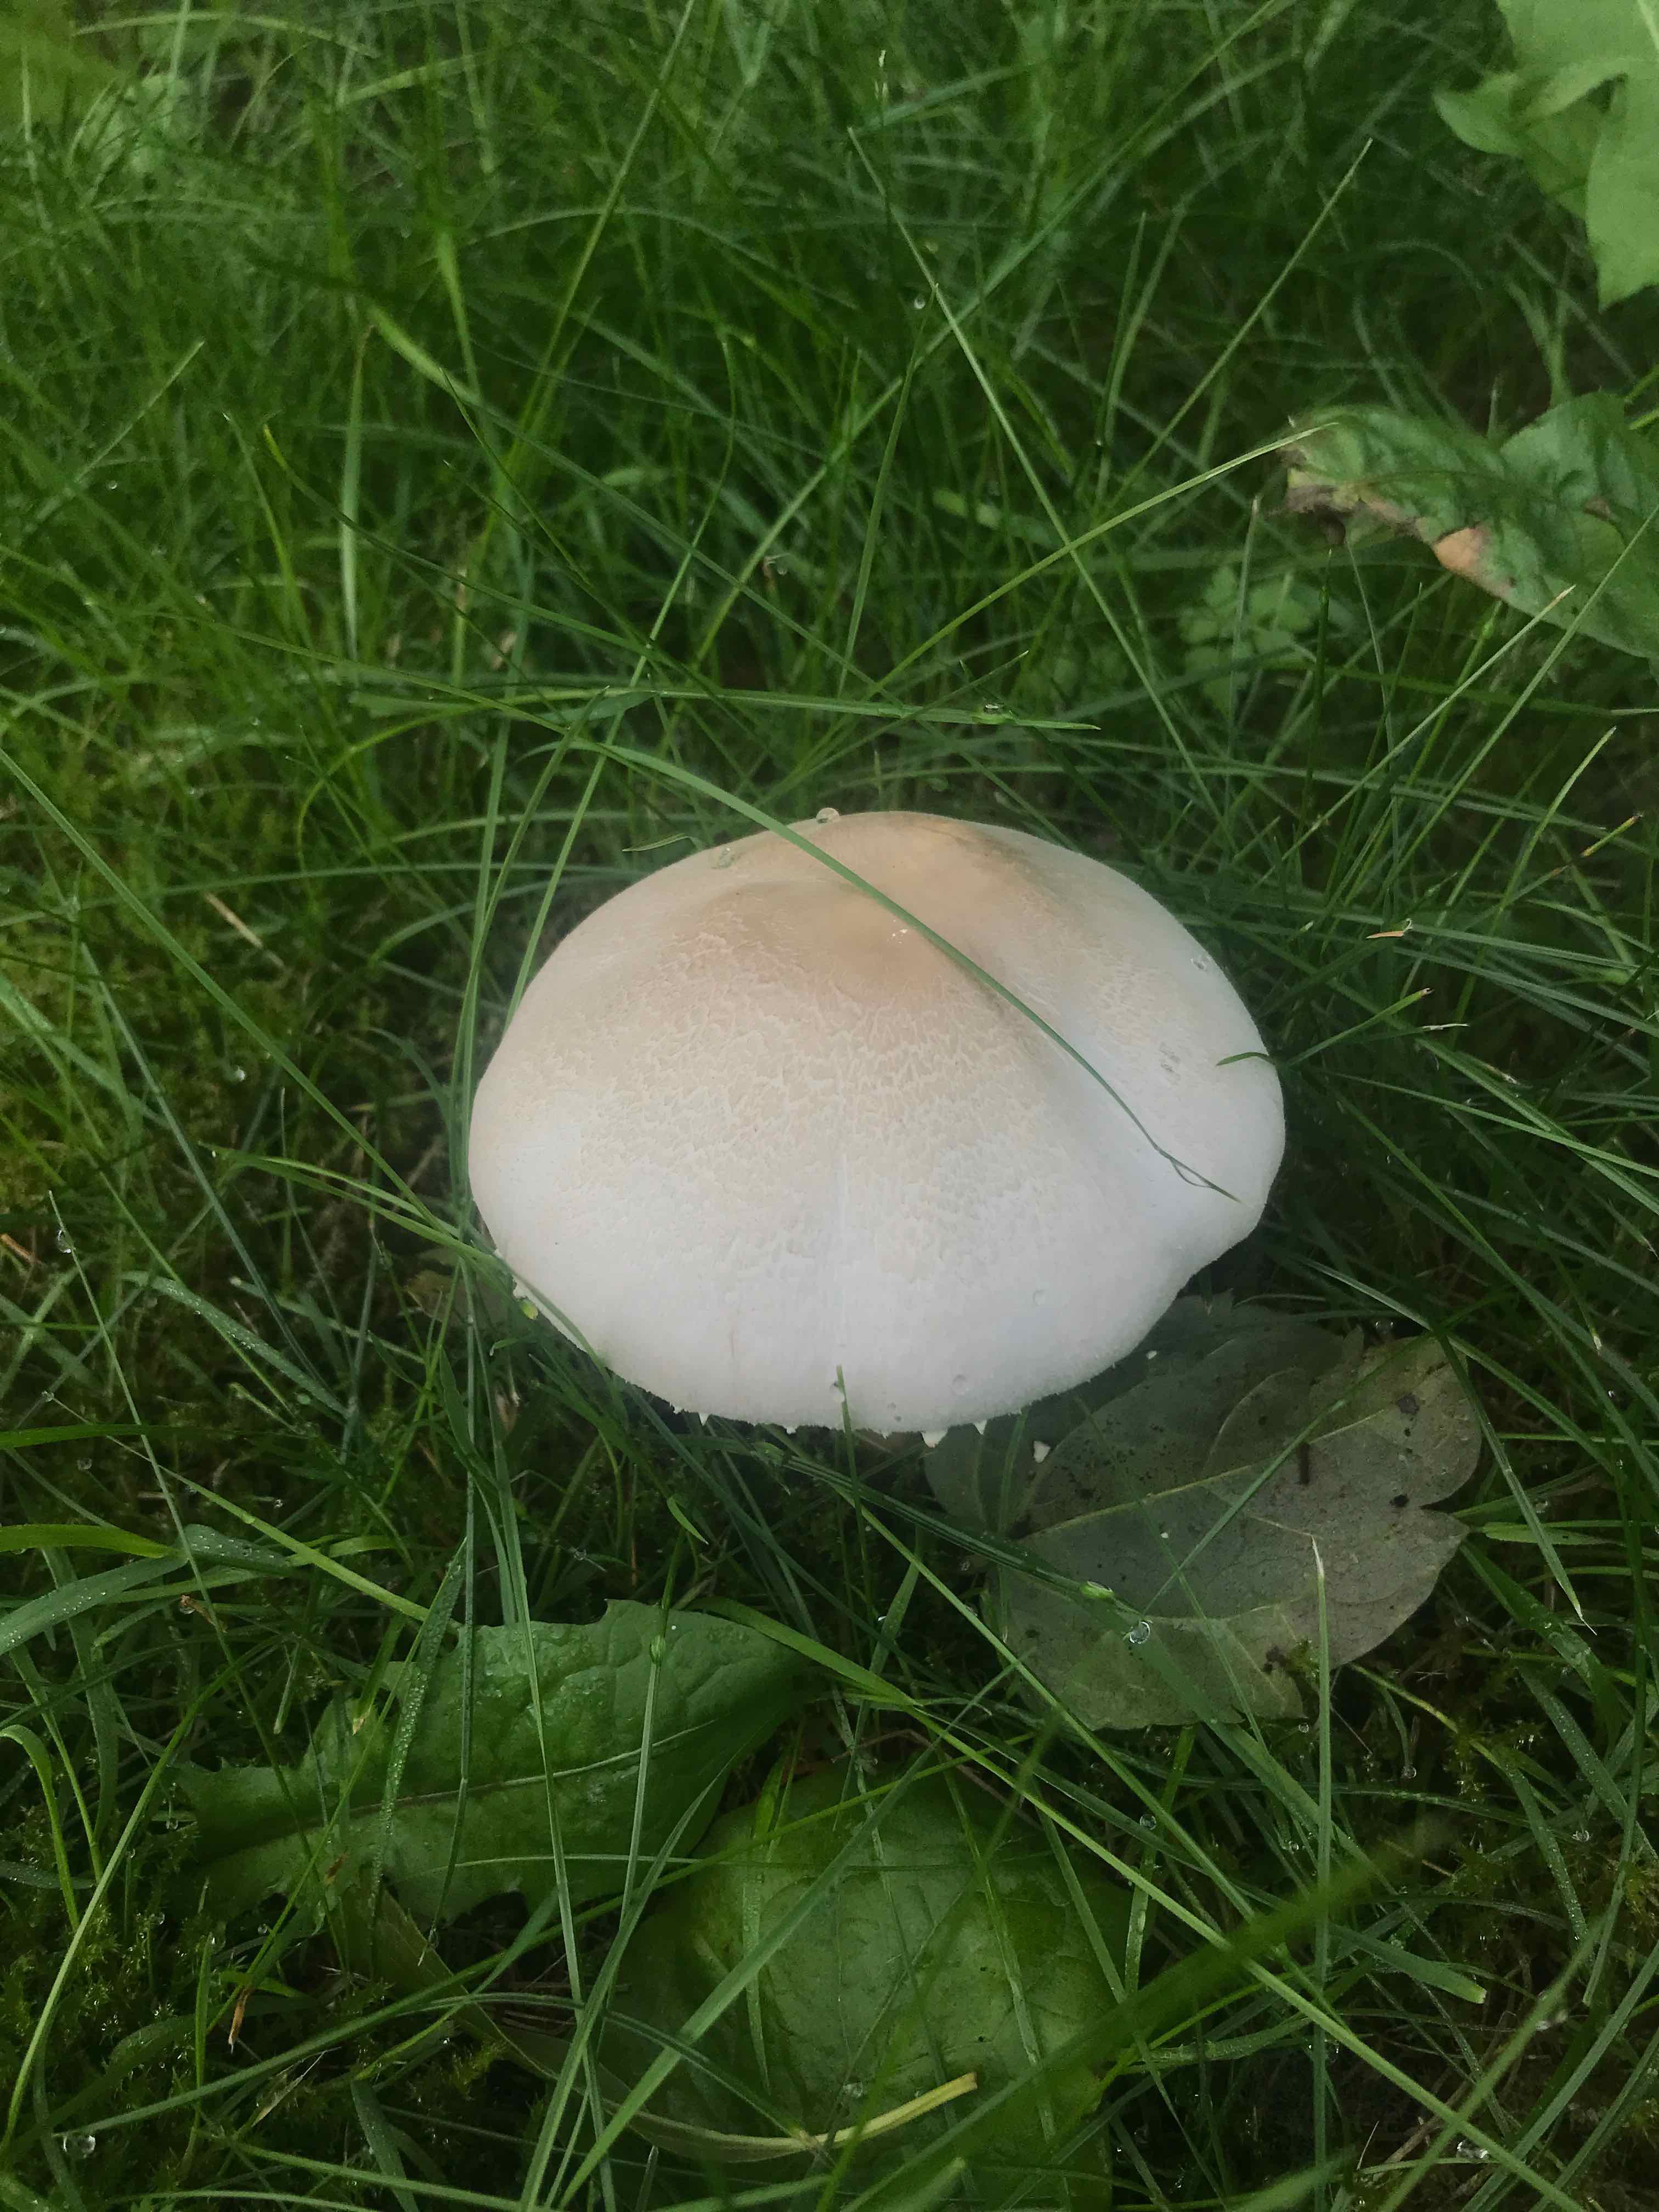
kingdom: Fungi
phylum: Basidiomycota
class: Agaricomycetes
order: Agaricales
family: Agaricaceae
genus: Agaricus
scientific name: Agaricus
